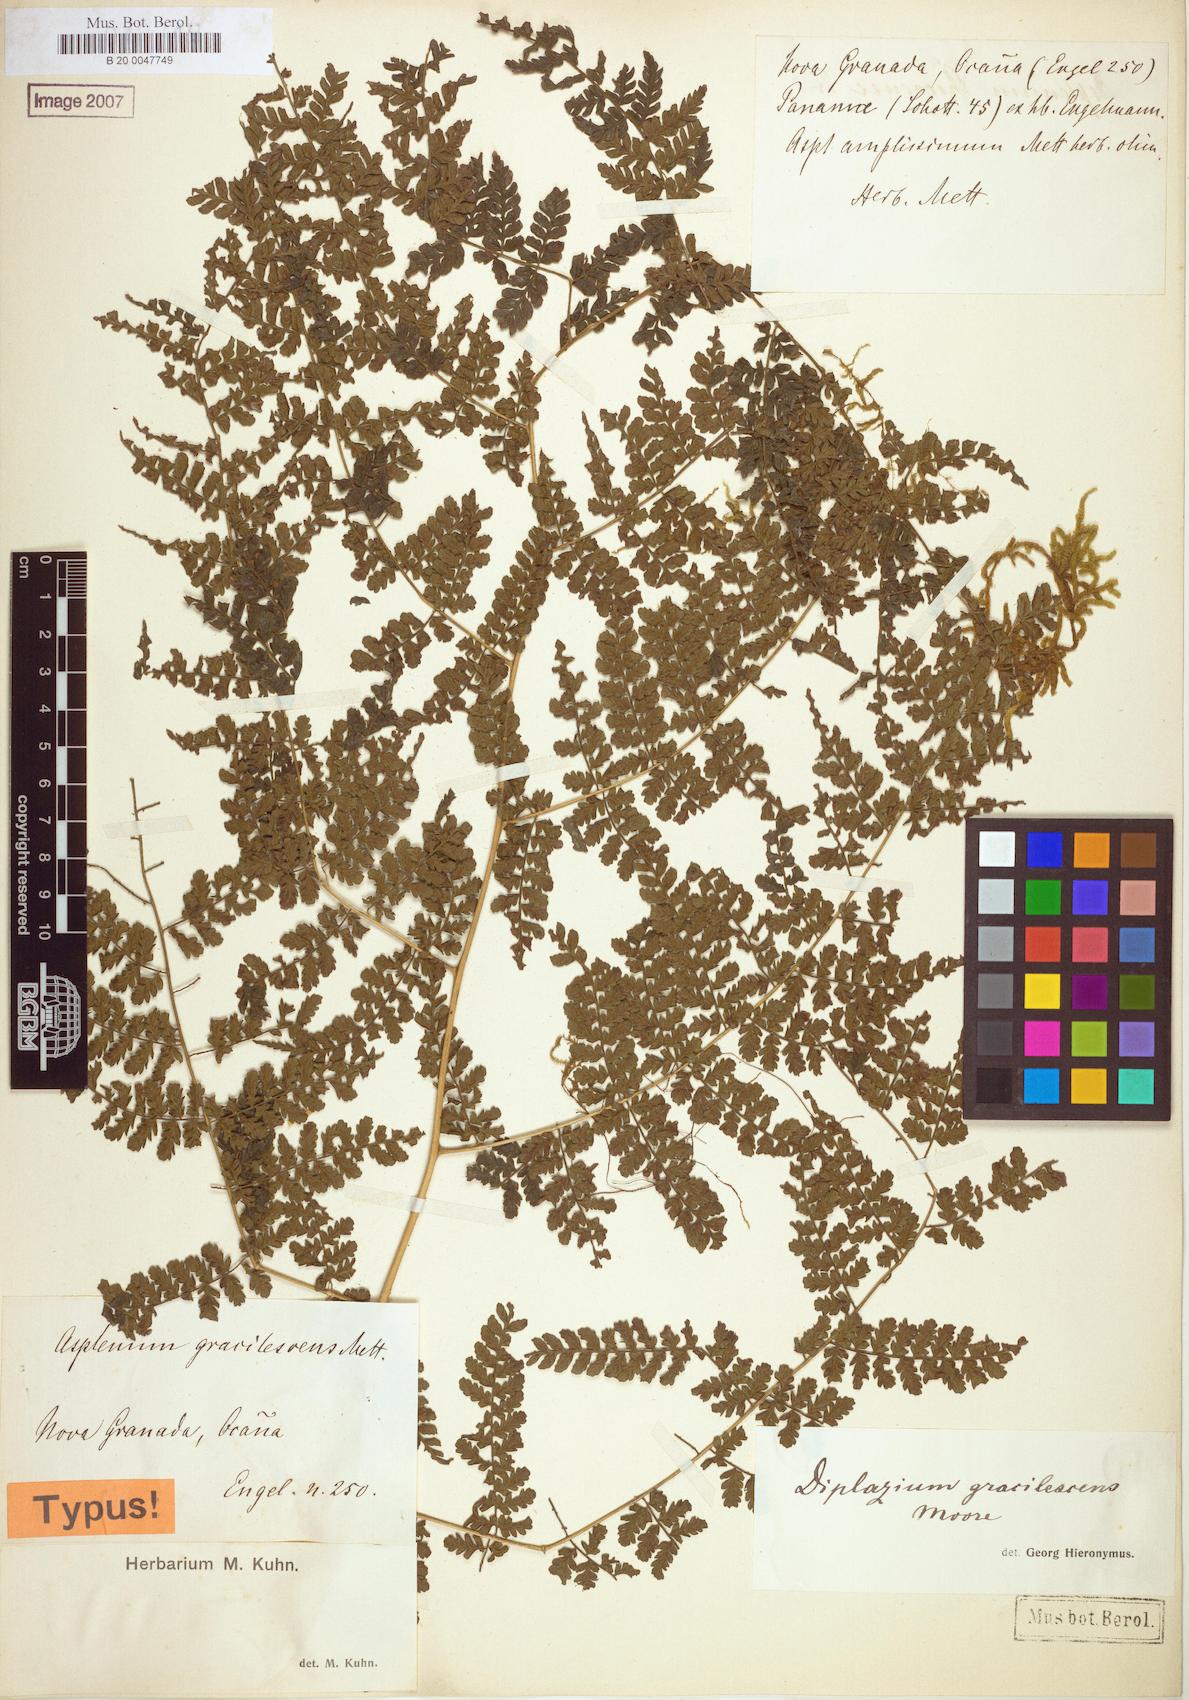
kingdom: Plantae
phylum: Tracheophyta
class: Polypodiopsida
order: Polypodiales
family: Athyriaceae
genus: Diplazium
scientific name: Diplazium gracilescens
